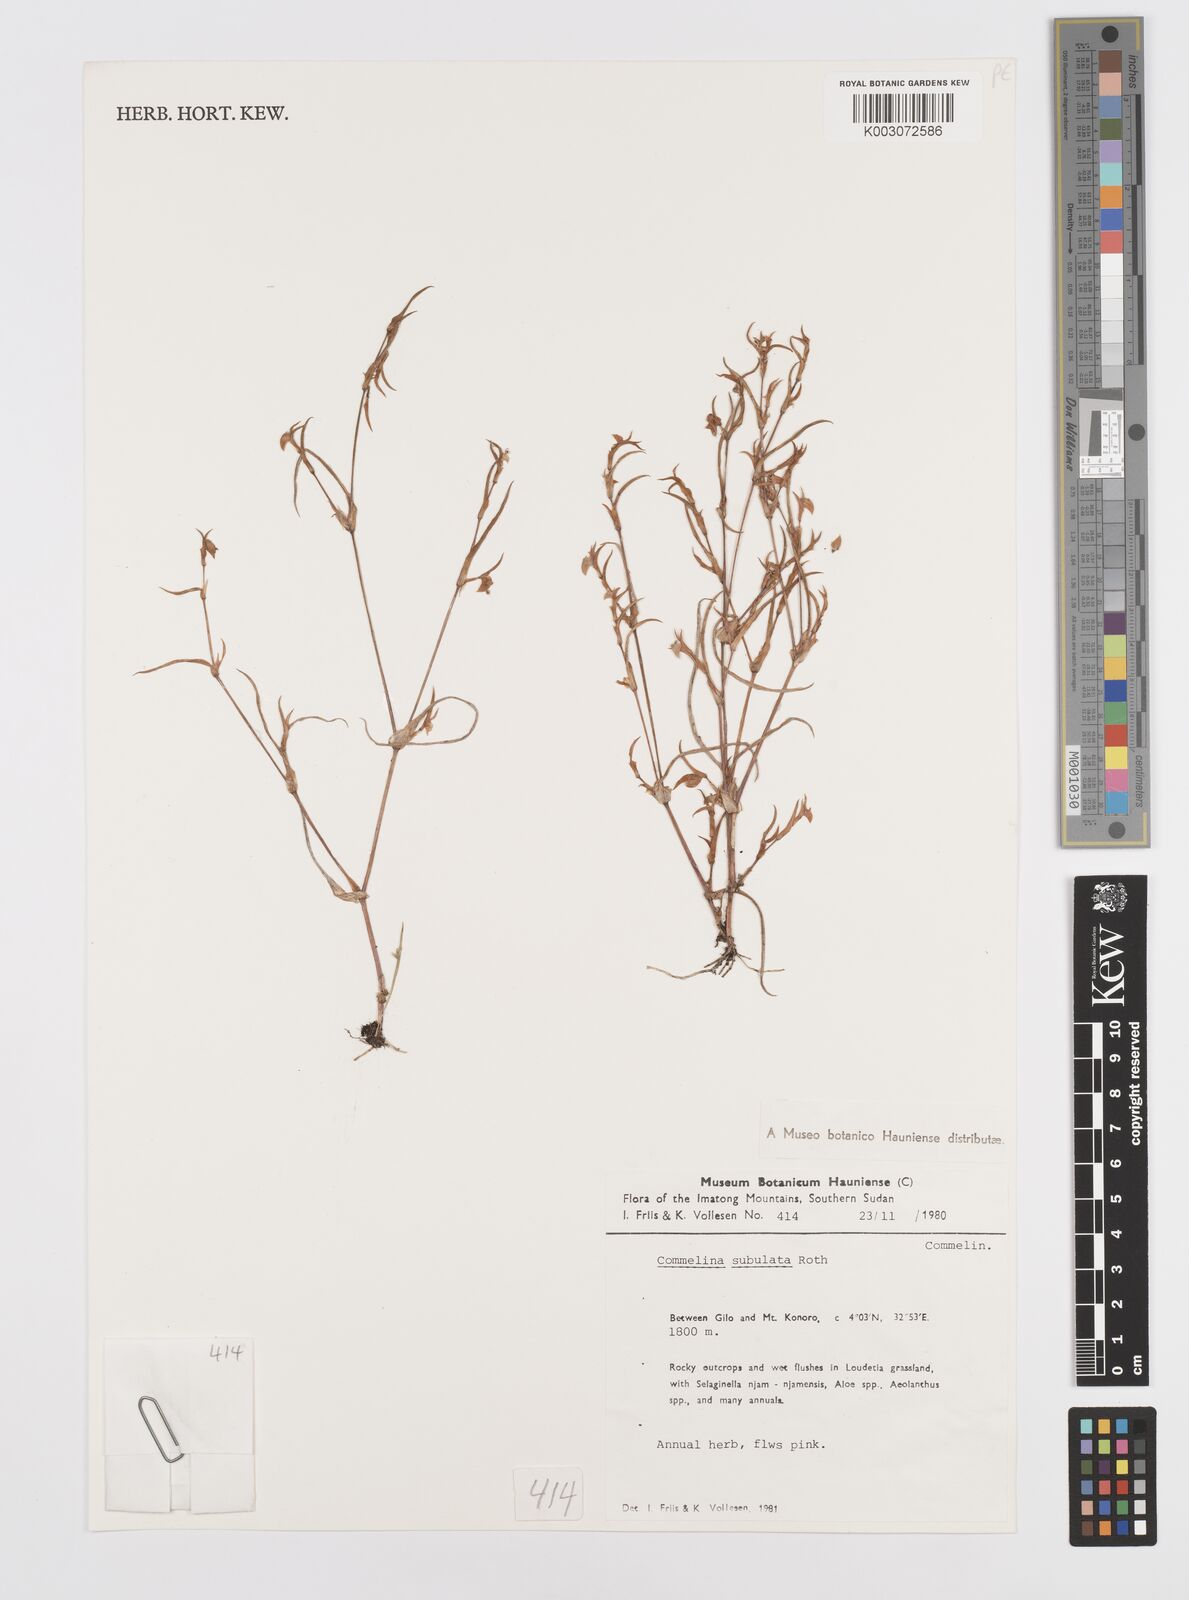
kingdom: Plantae
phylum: Tracheophyta
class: Liliopsida
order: Commelinales
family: Commelinaceae
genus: Commelina
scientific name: Commelina subulata
